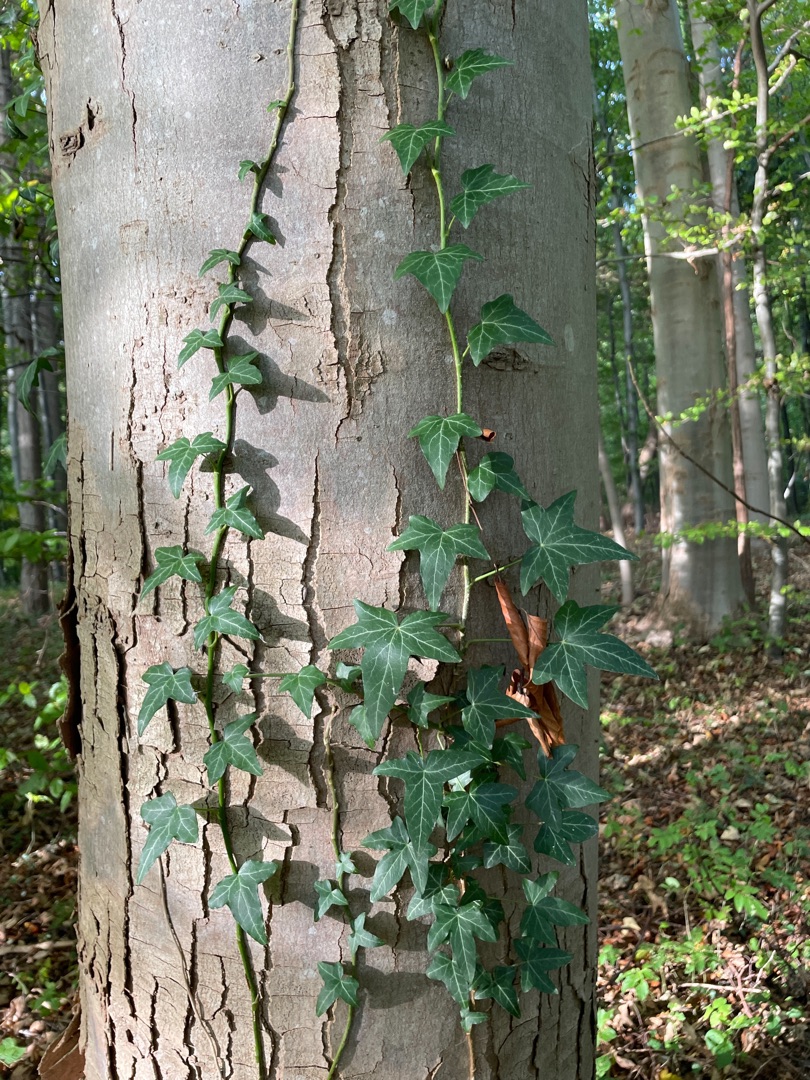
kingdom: Plantae
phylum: Tracheophyta
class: Magnoliopsida
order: Apiales
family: Araliaceae
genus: Hedera
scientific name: Hedera helix
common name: Vedbend
